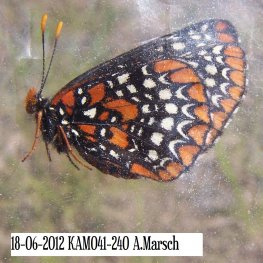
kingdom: Animalia
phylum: Arthropoda
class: Insecta
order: Lepidoptera
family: Nymphalidae
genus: Euphydryas
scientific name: Euphydryas phaeton
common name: Baltimore Checkerspot
